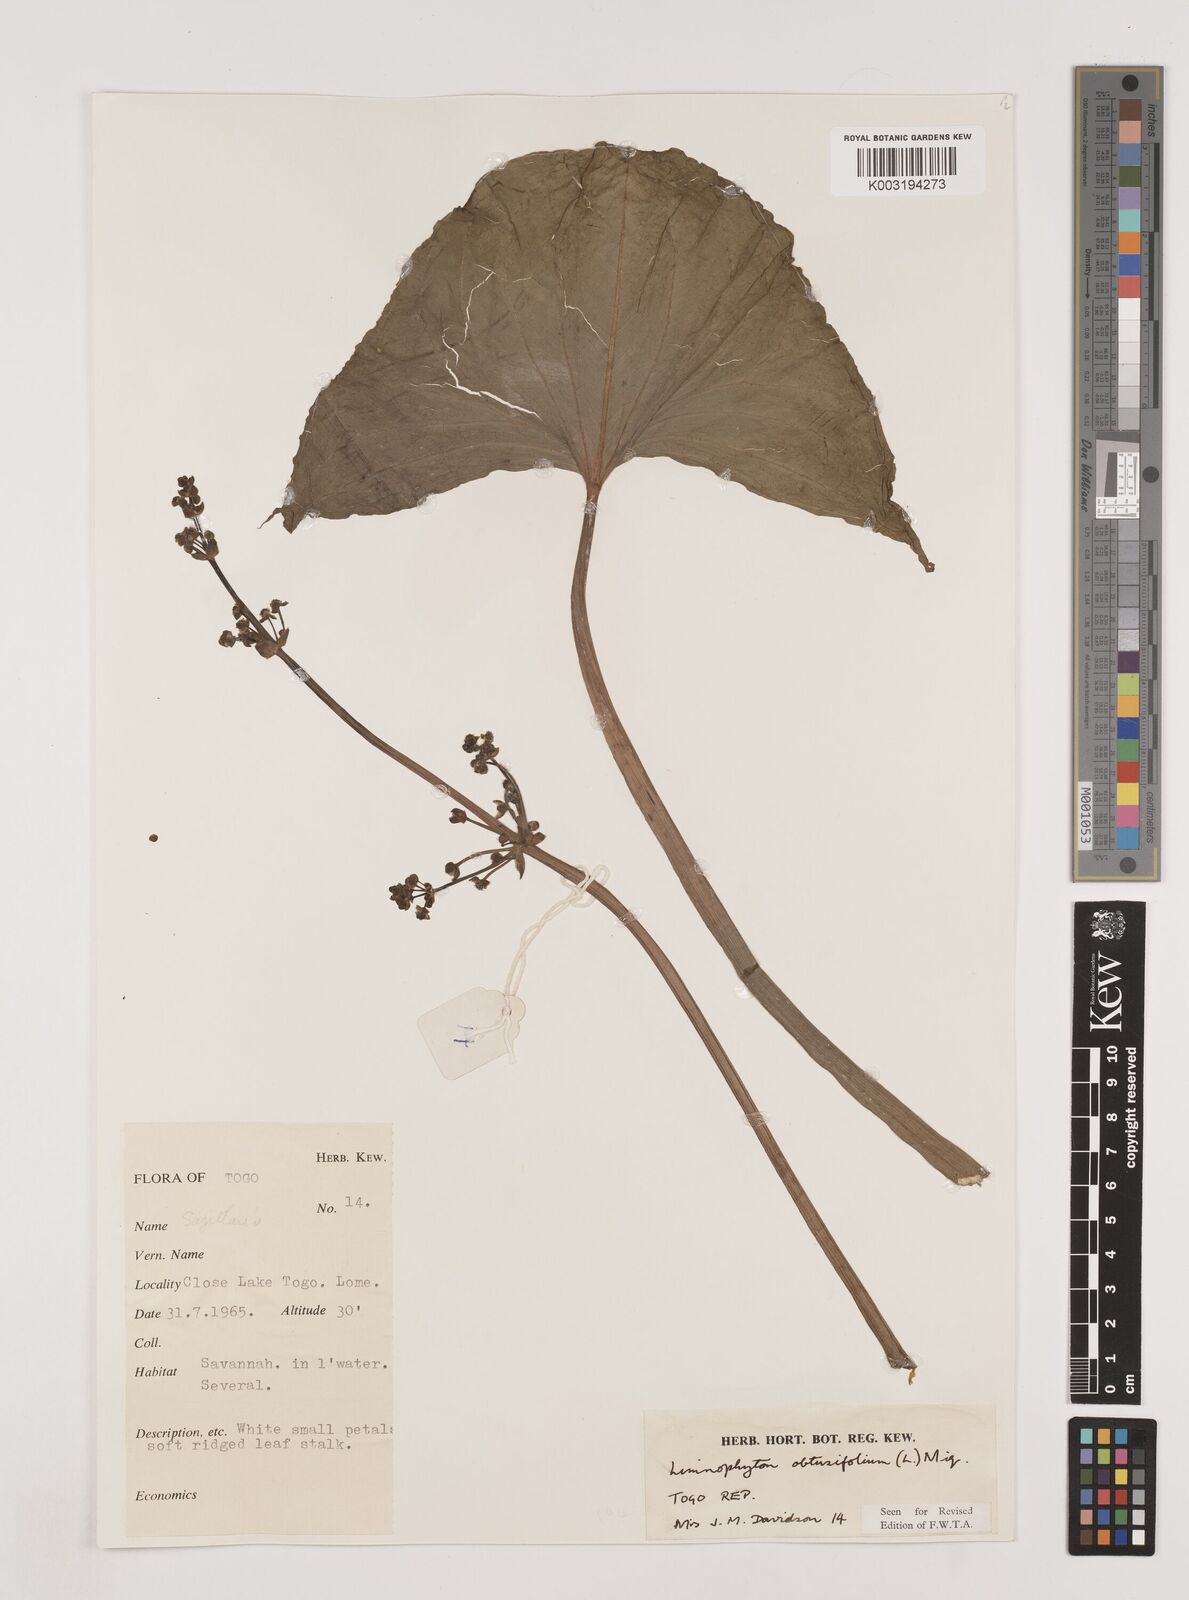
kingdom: Plantae
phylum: Tracheophyta
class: Liliopsida
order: Alismatales
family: Alismataceae
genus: Limnophyton
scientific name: Limnophyton obtusifolium
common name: Arrow head
